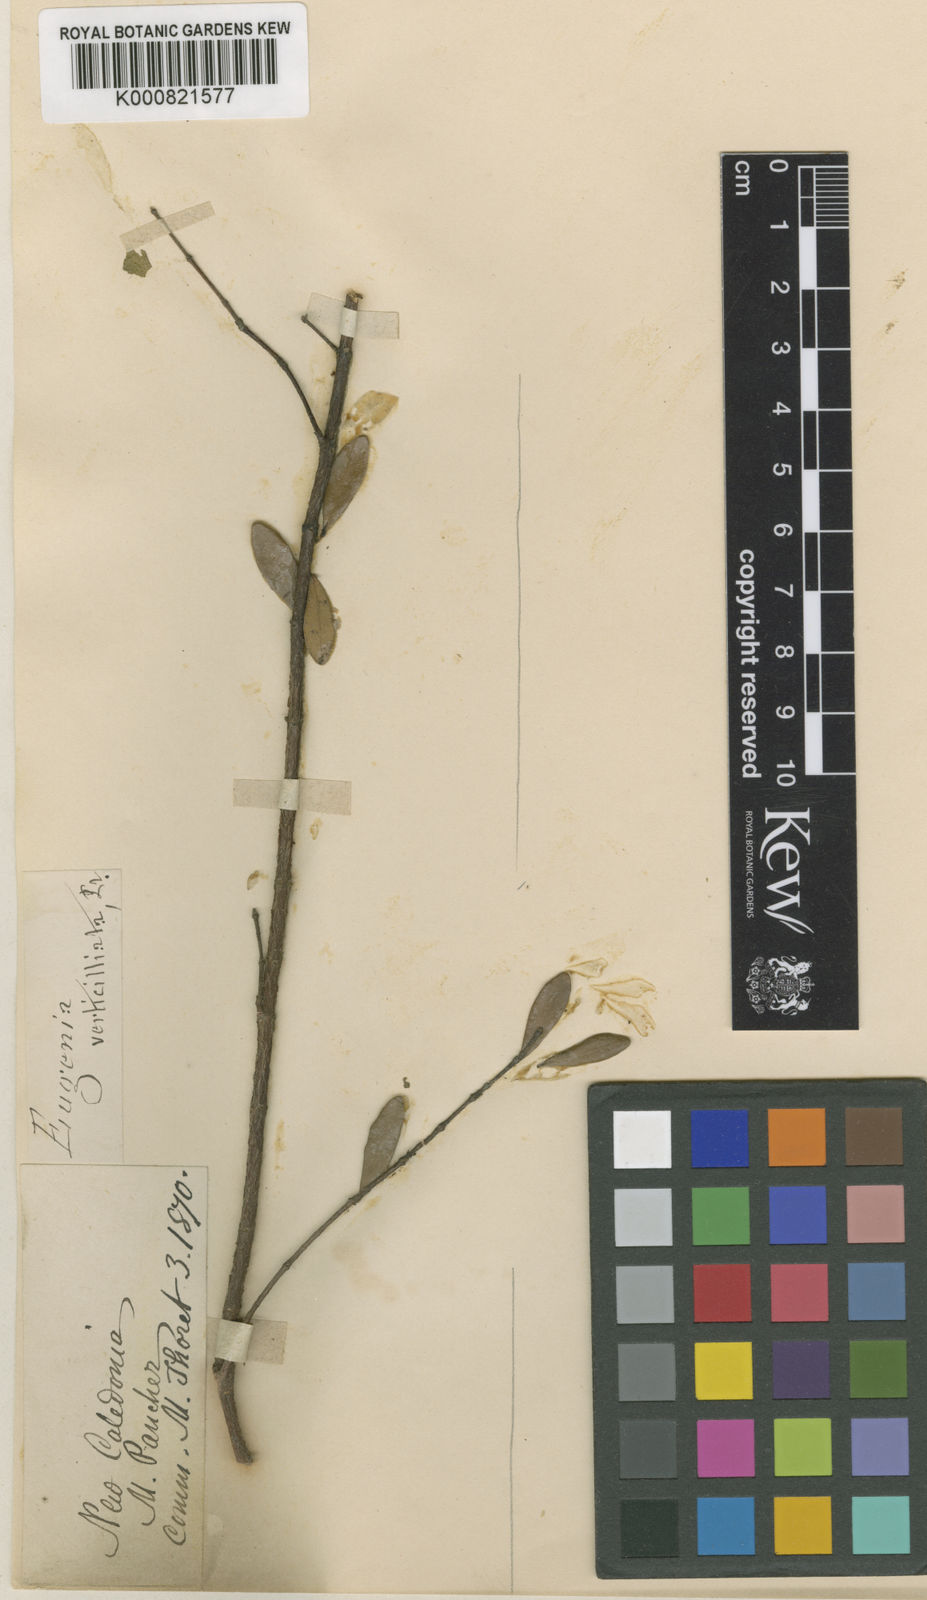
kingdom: Plantae
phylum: Tracheophyta
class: Magnoliopsida
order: Myrtales
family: Myrtaceae
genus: Eugenia
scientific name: Eugenia
